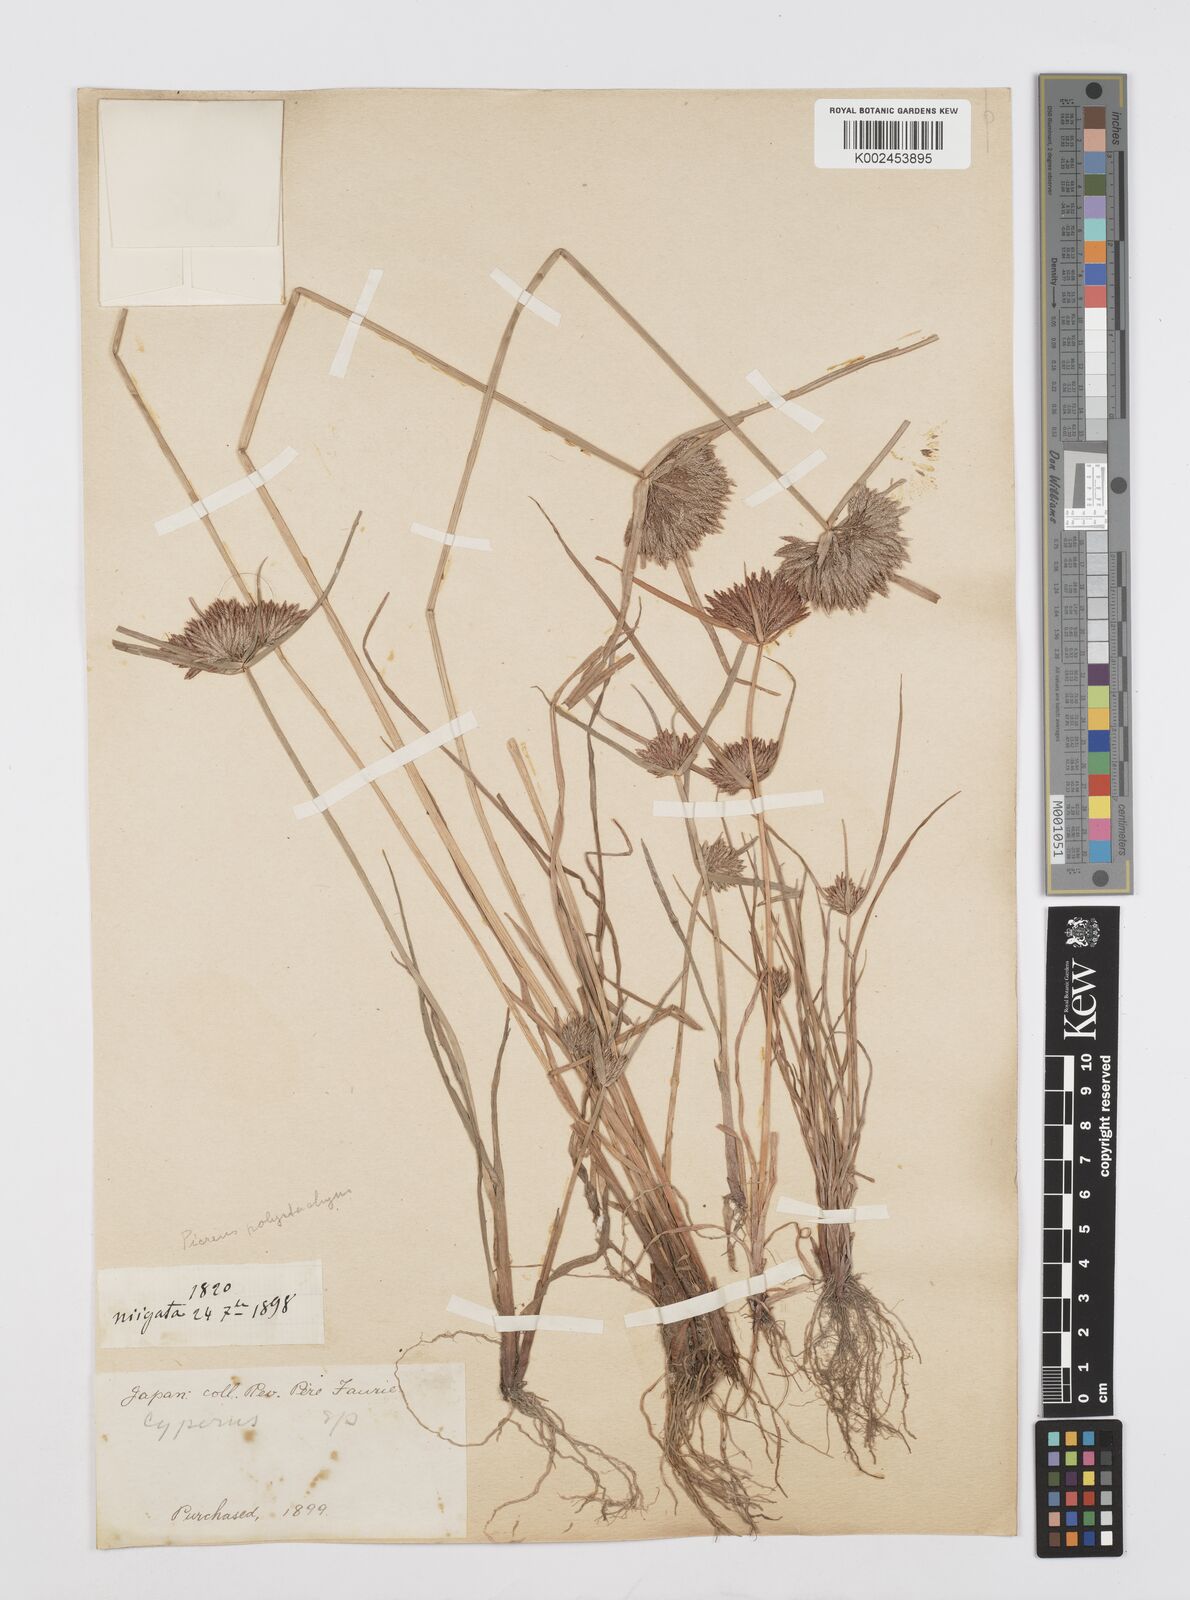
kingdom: Plantae
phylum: Tracheophyta
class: Liliopsida
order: Poales
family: Cyperaceae
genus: Cyperus
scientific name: Cyperus polystachyos
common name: Bunchy flat sedge
